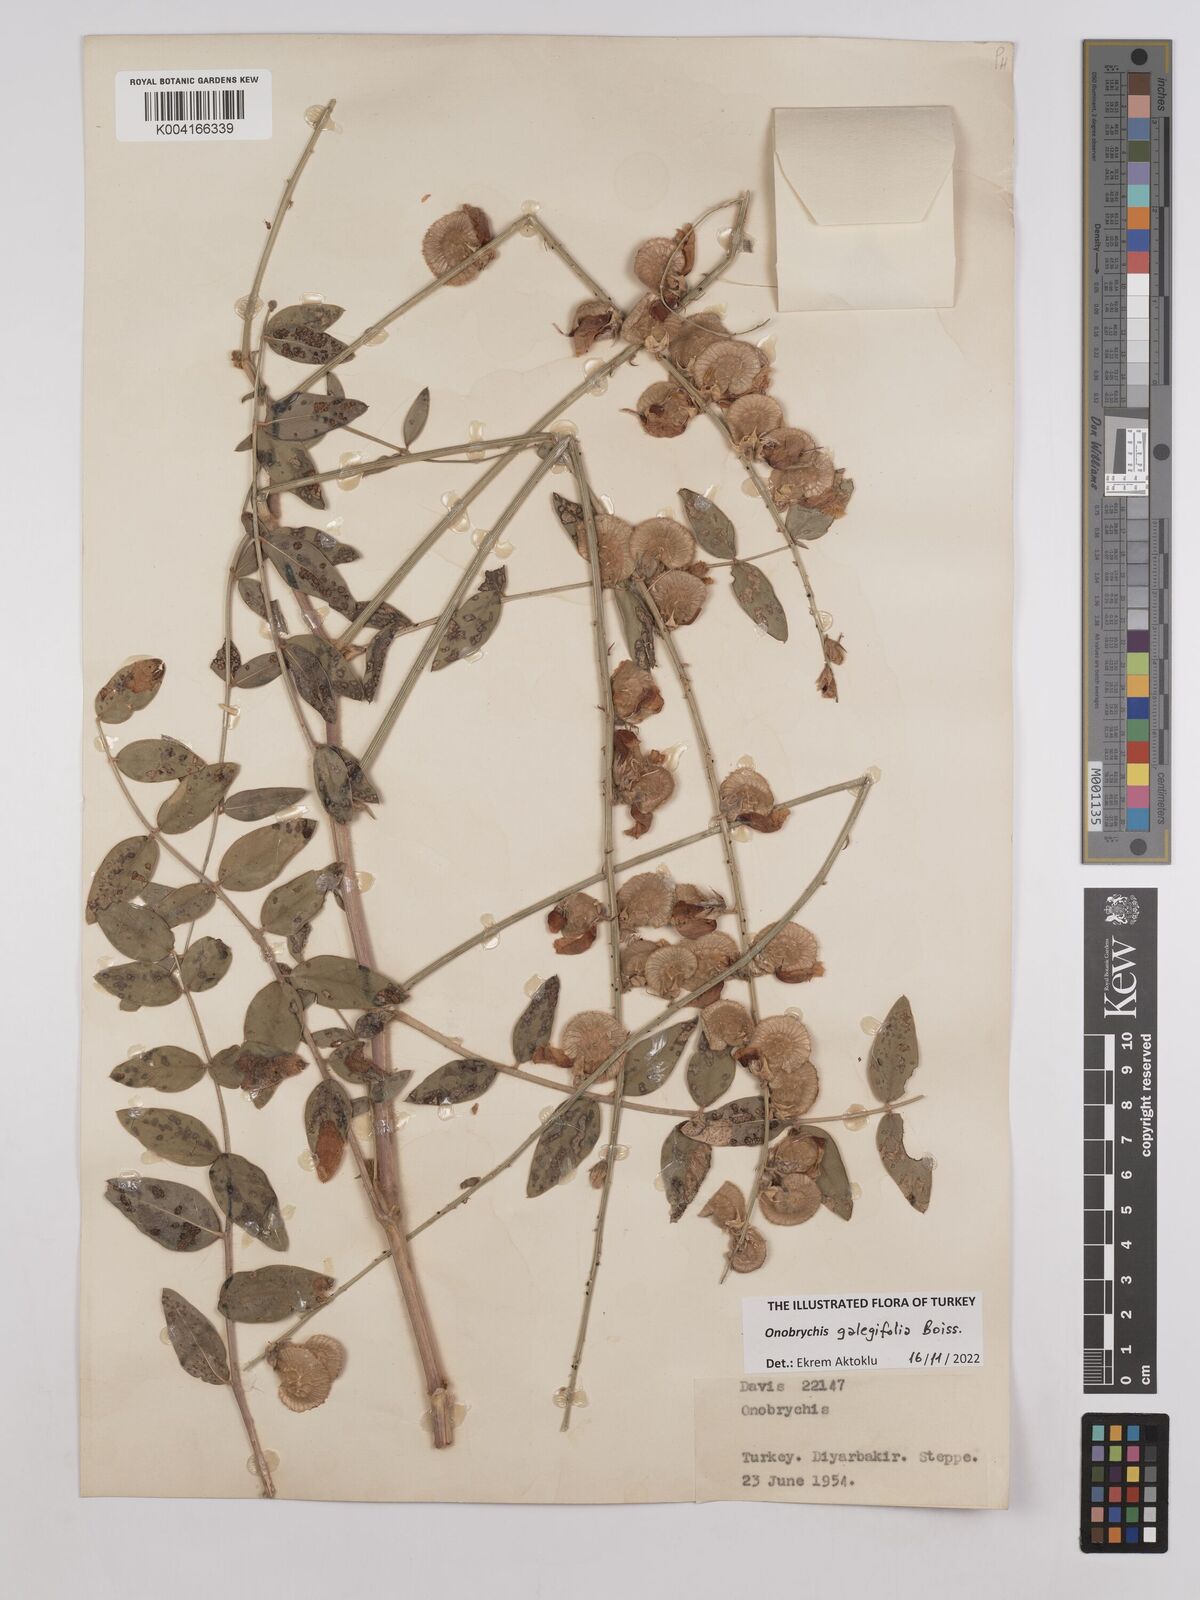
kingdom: Plantae
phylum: Tracheophyta
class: Magnoliopsida
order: Fabales
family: Fabaceae
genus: Onobrychis
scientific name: Onobrychis galegifolia
